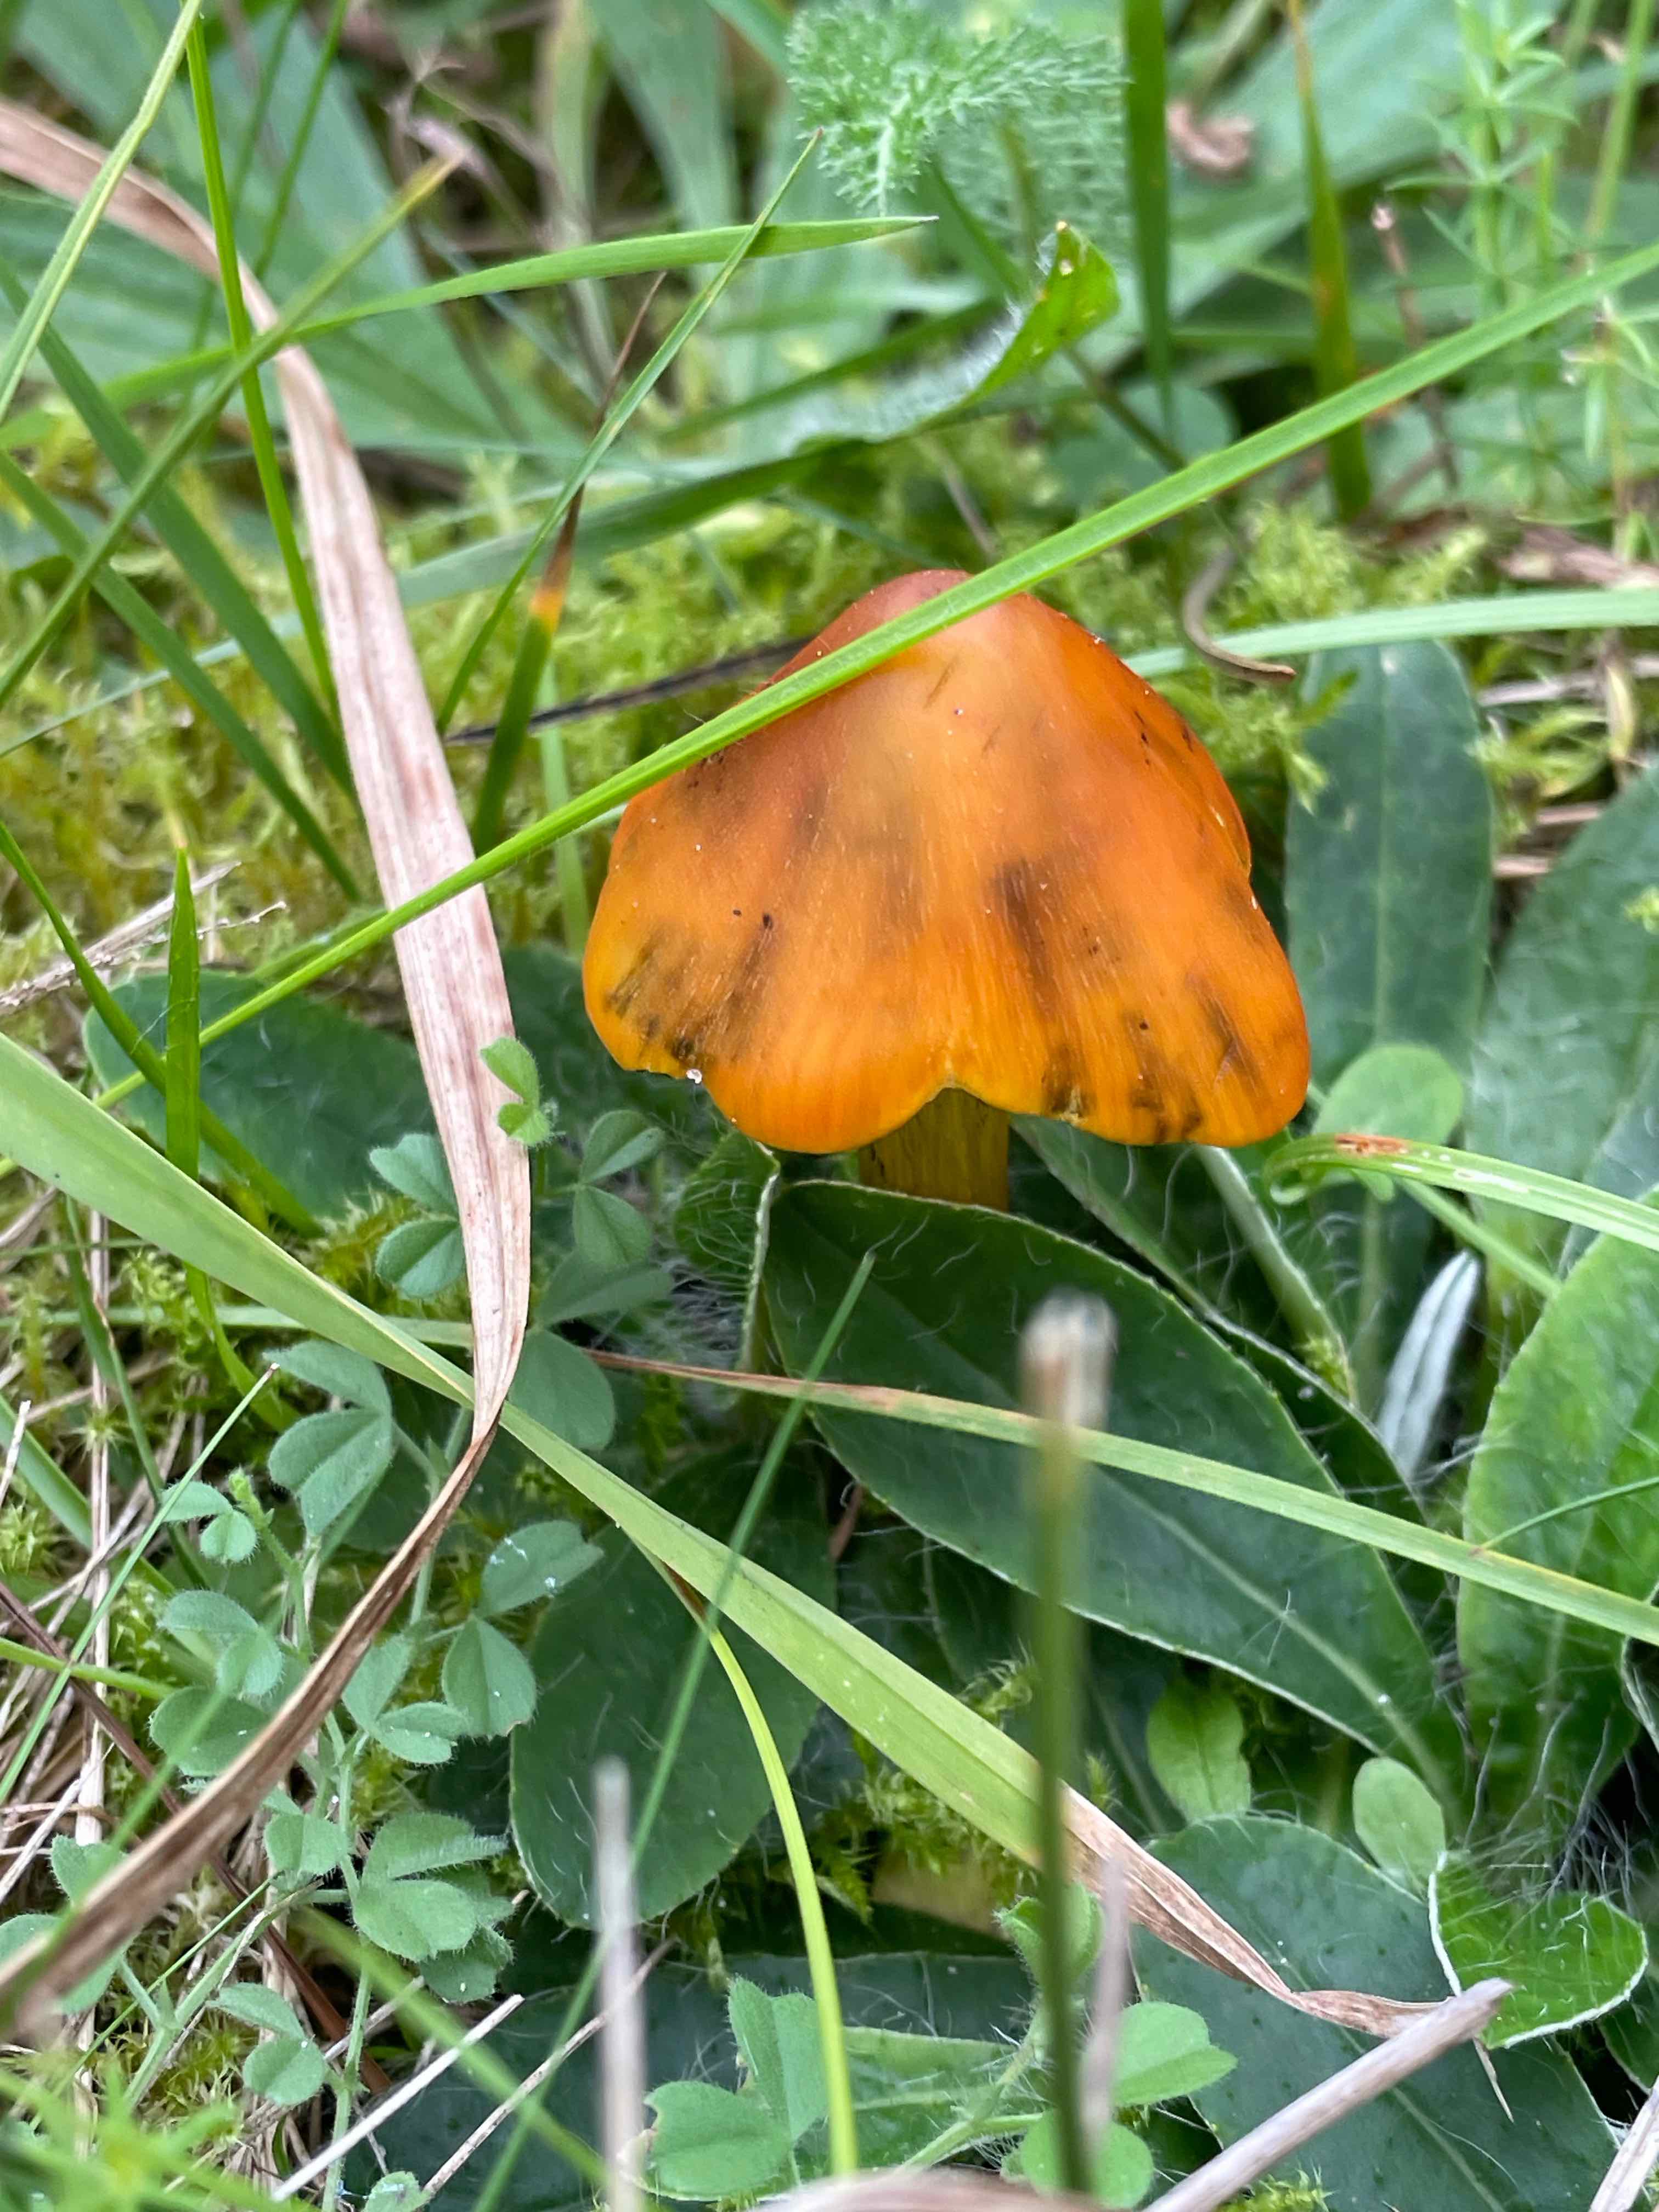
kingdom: Fungi
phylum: Basidiomycota
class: Agaricomycetes
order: Agaricales
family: Hygrophoraceae
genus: Hygrocybe
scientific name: Hygrocybe conica
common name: kegle-vokshat
